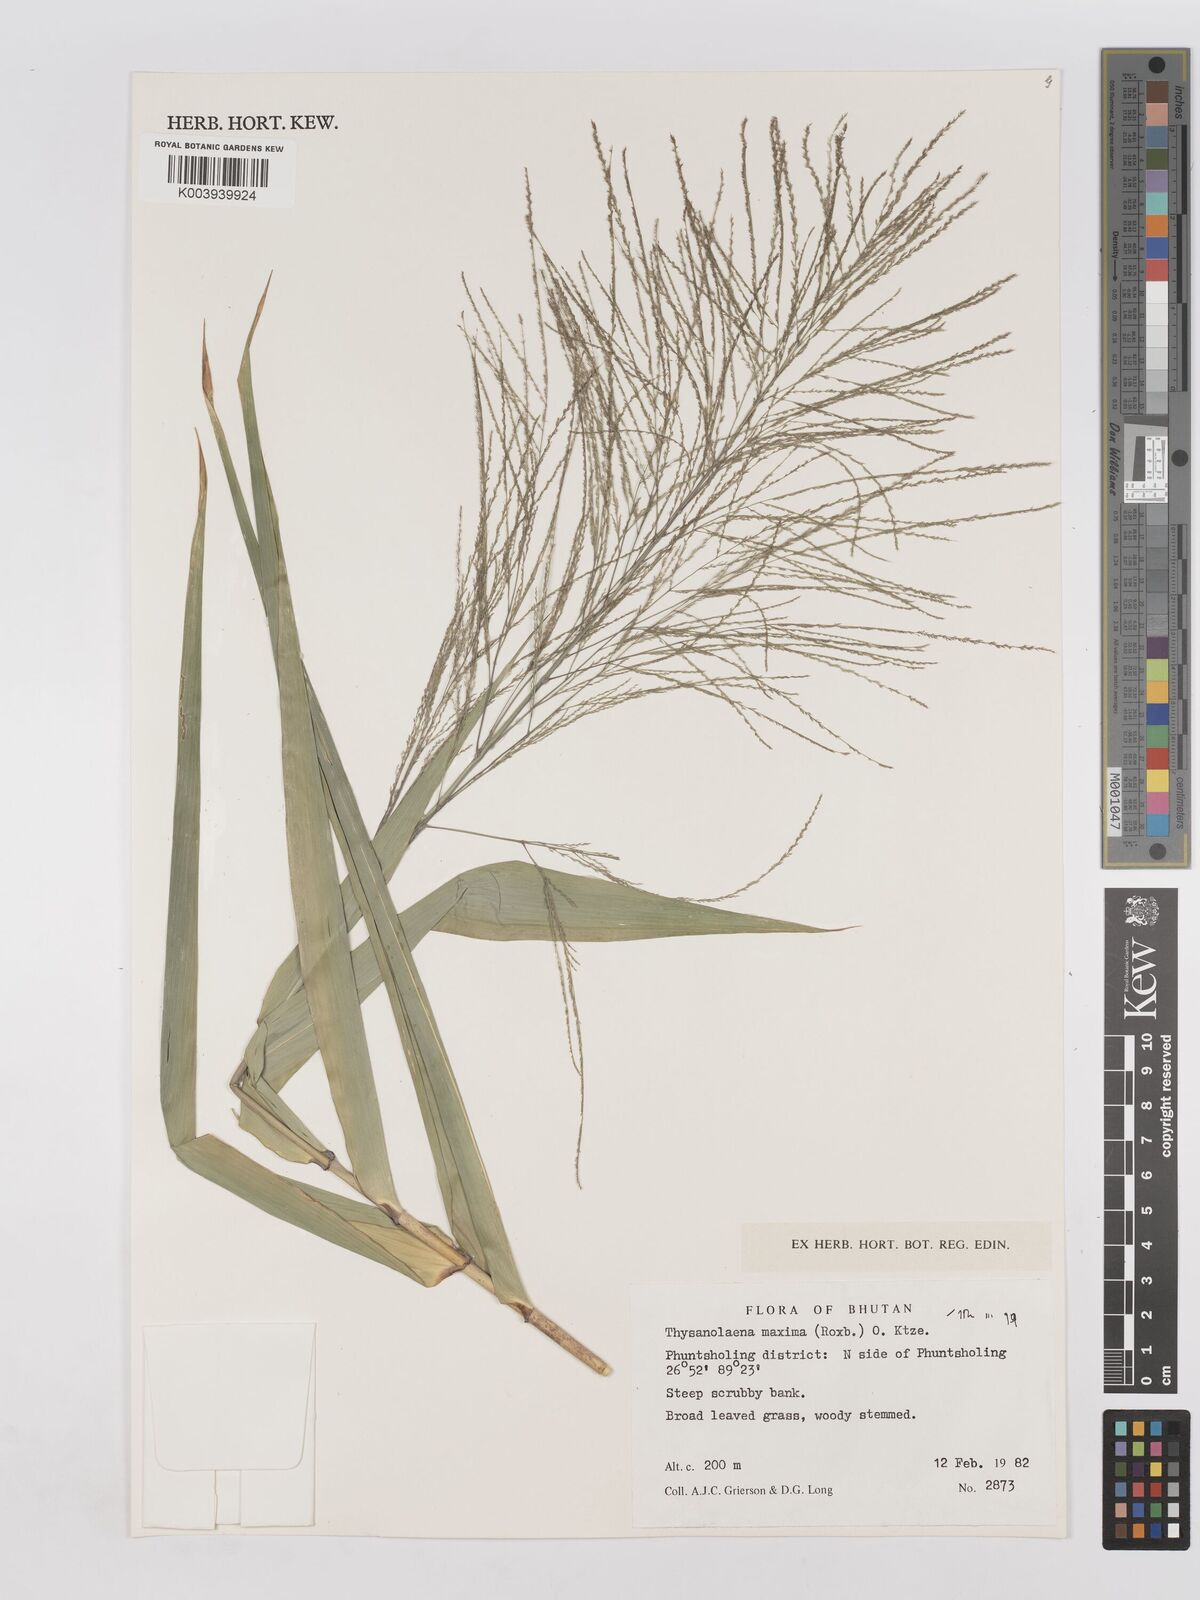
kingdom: Plantae
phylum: Tracheophyta
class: Liliopsida
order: Poales
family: Poaceae
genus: Thysanolaena
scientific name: Thysanolaena latifolia
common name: Tiger grass
